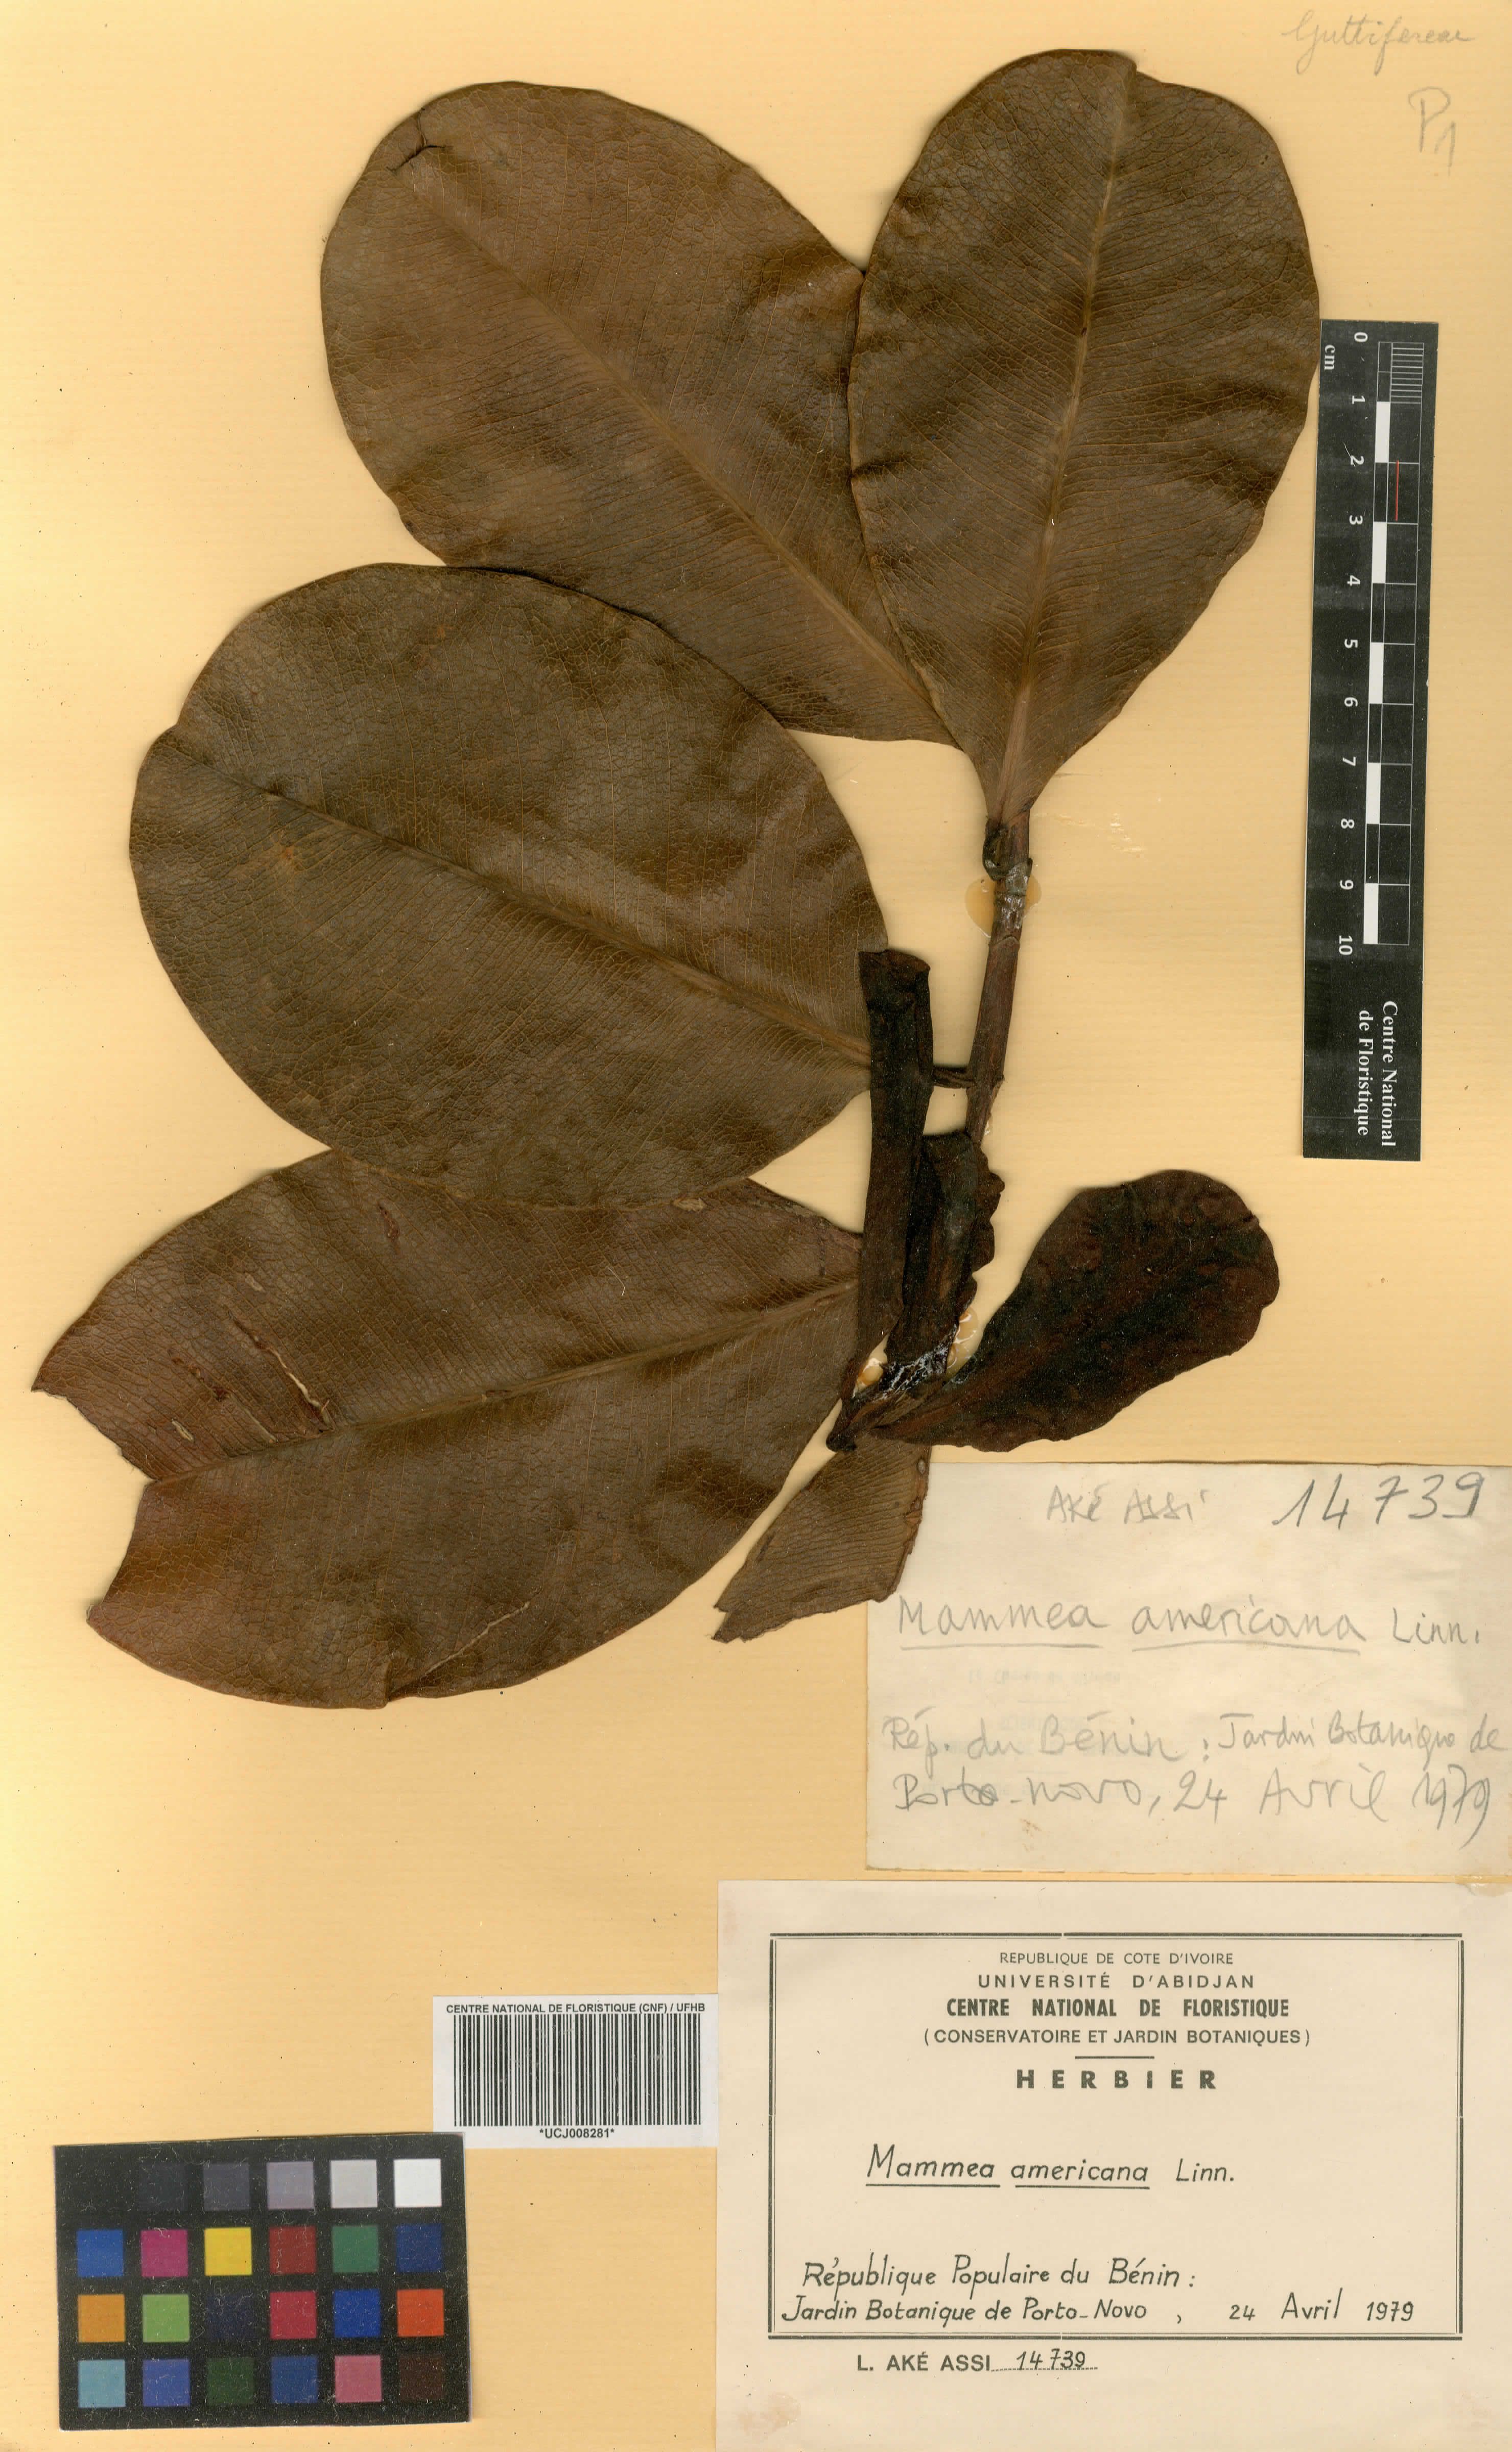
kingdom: Plantae
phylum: Tracheophyta
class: Magnoliopsida
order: Malpighiales
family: Calophyllaceae
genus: Mammea
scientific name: Mammea americana
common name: Mamey
